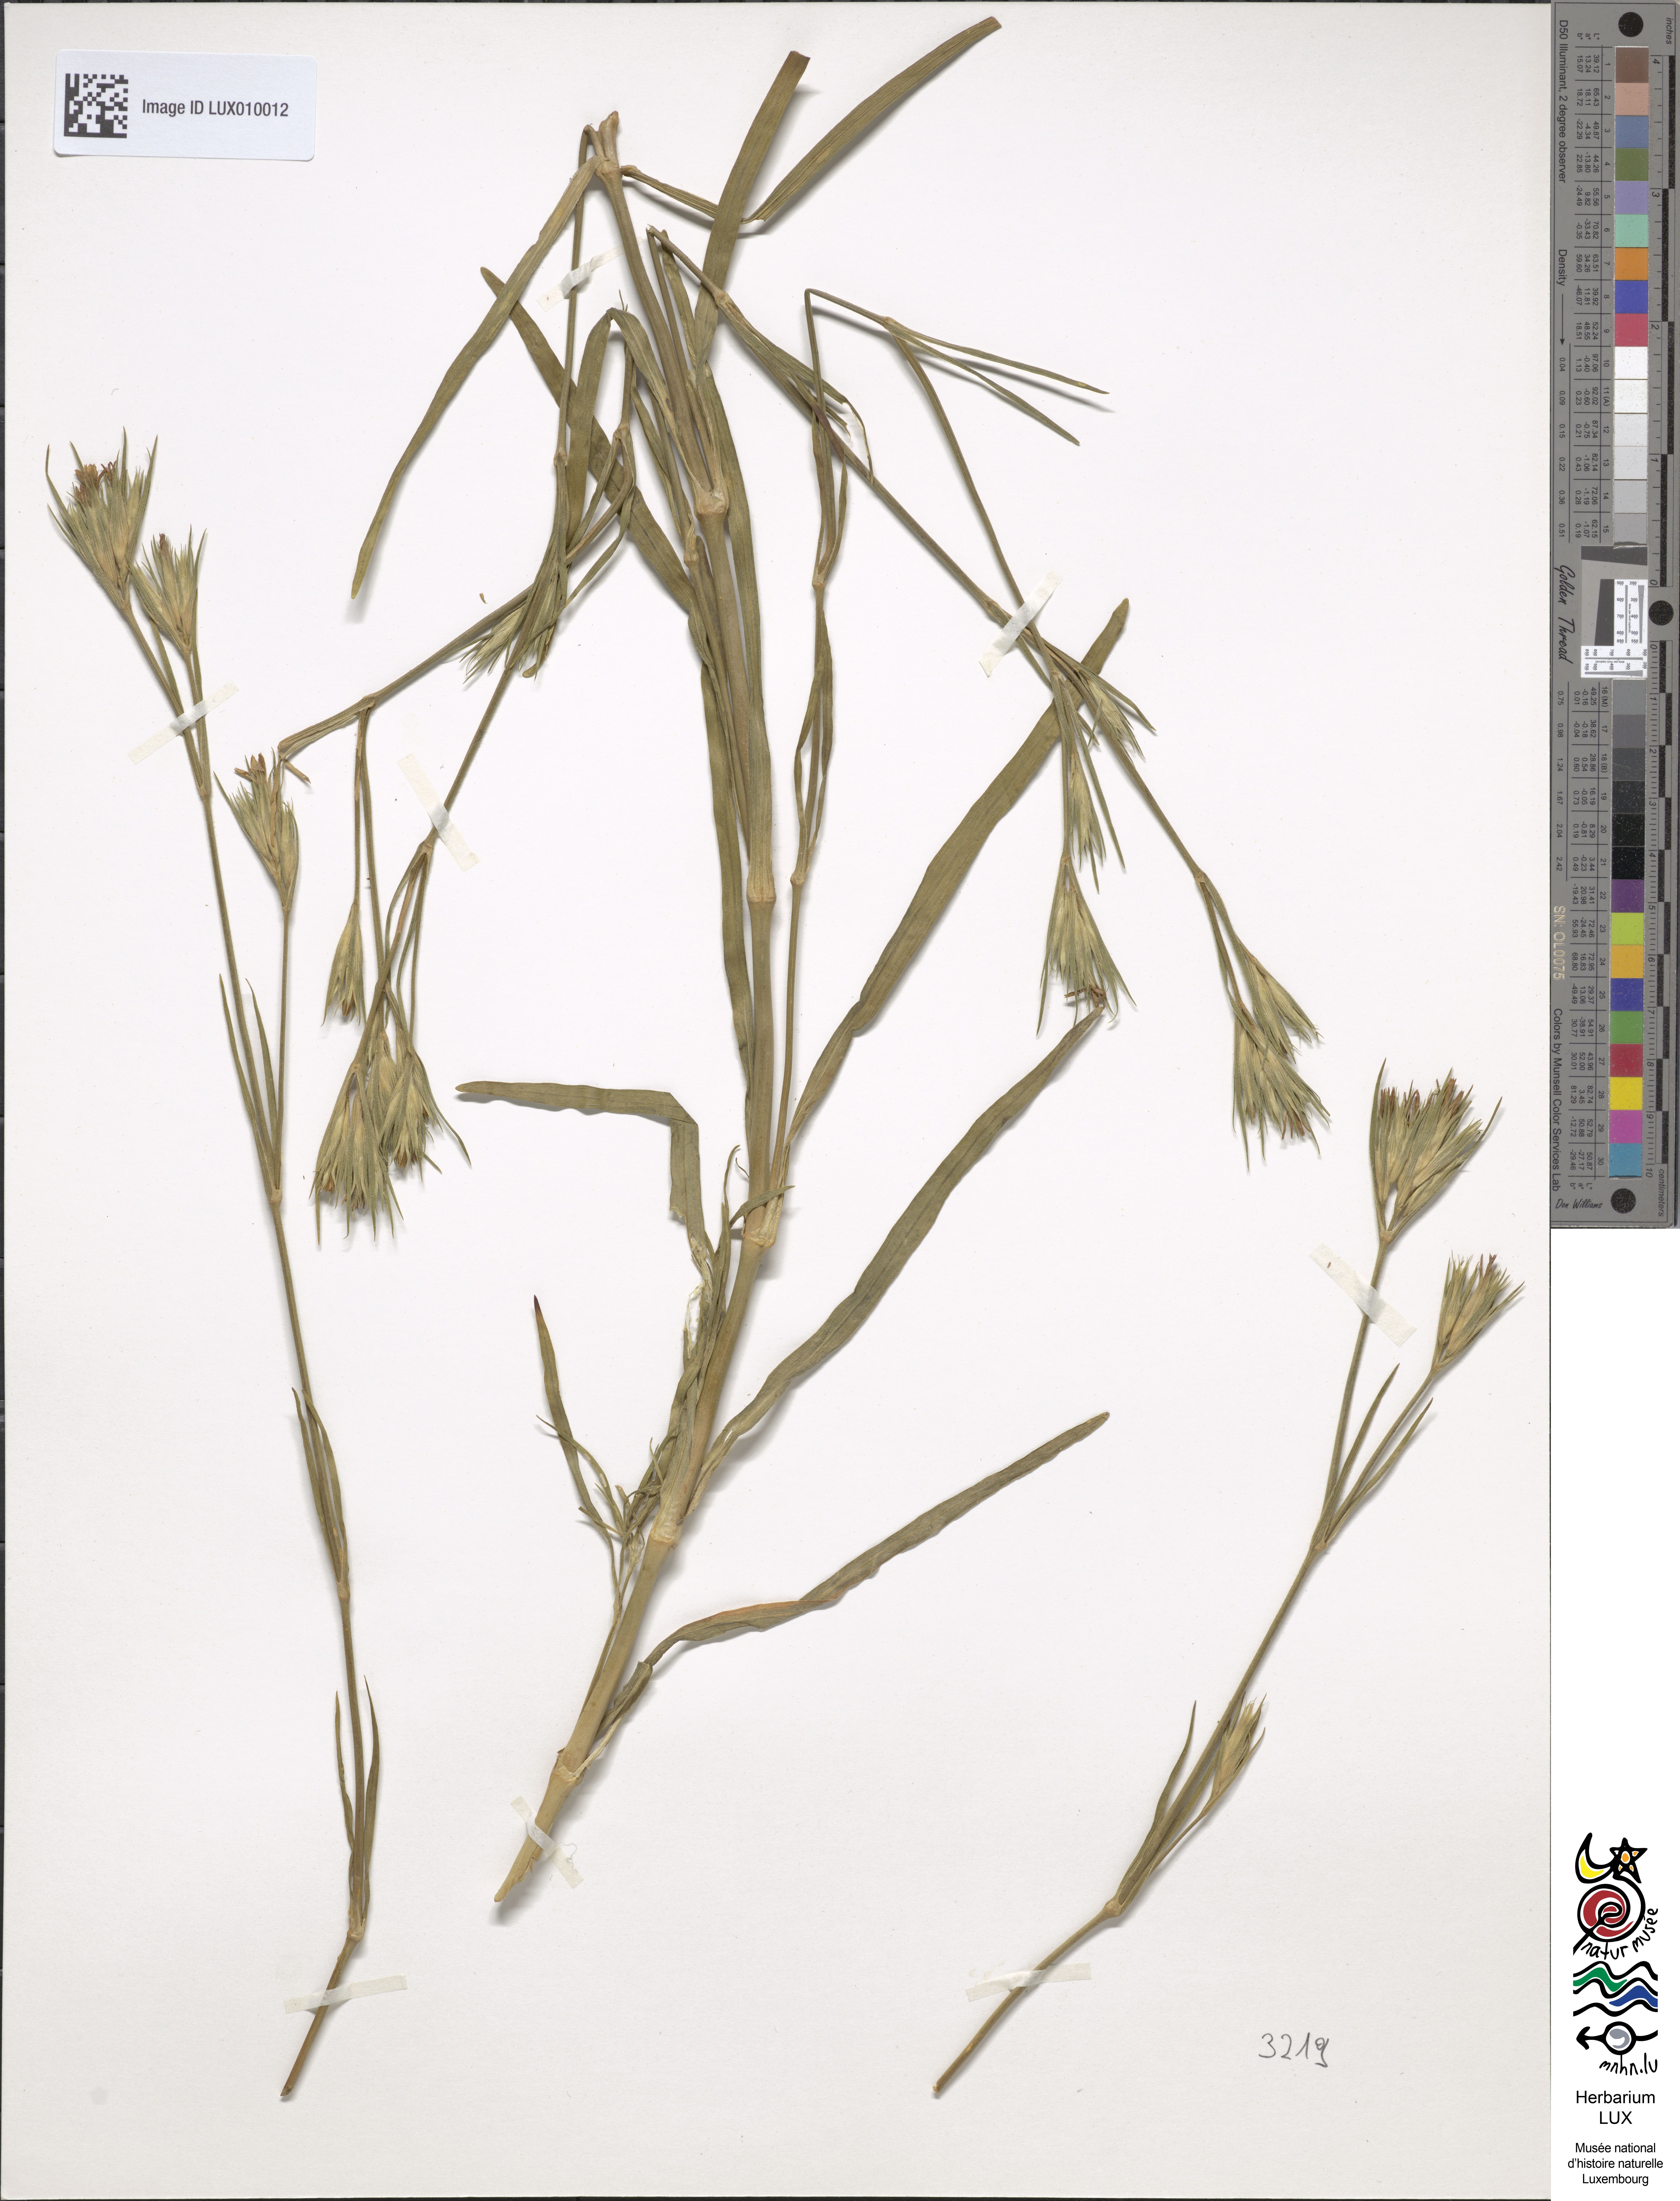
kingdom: Plantae
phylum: Tracheophyta
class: Magnoliopsida
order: Caryophyllales
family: Caryophyllaceae
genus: Dianthus
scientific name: Dianthus armeria
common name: Deptford pink
